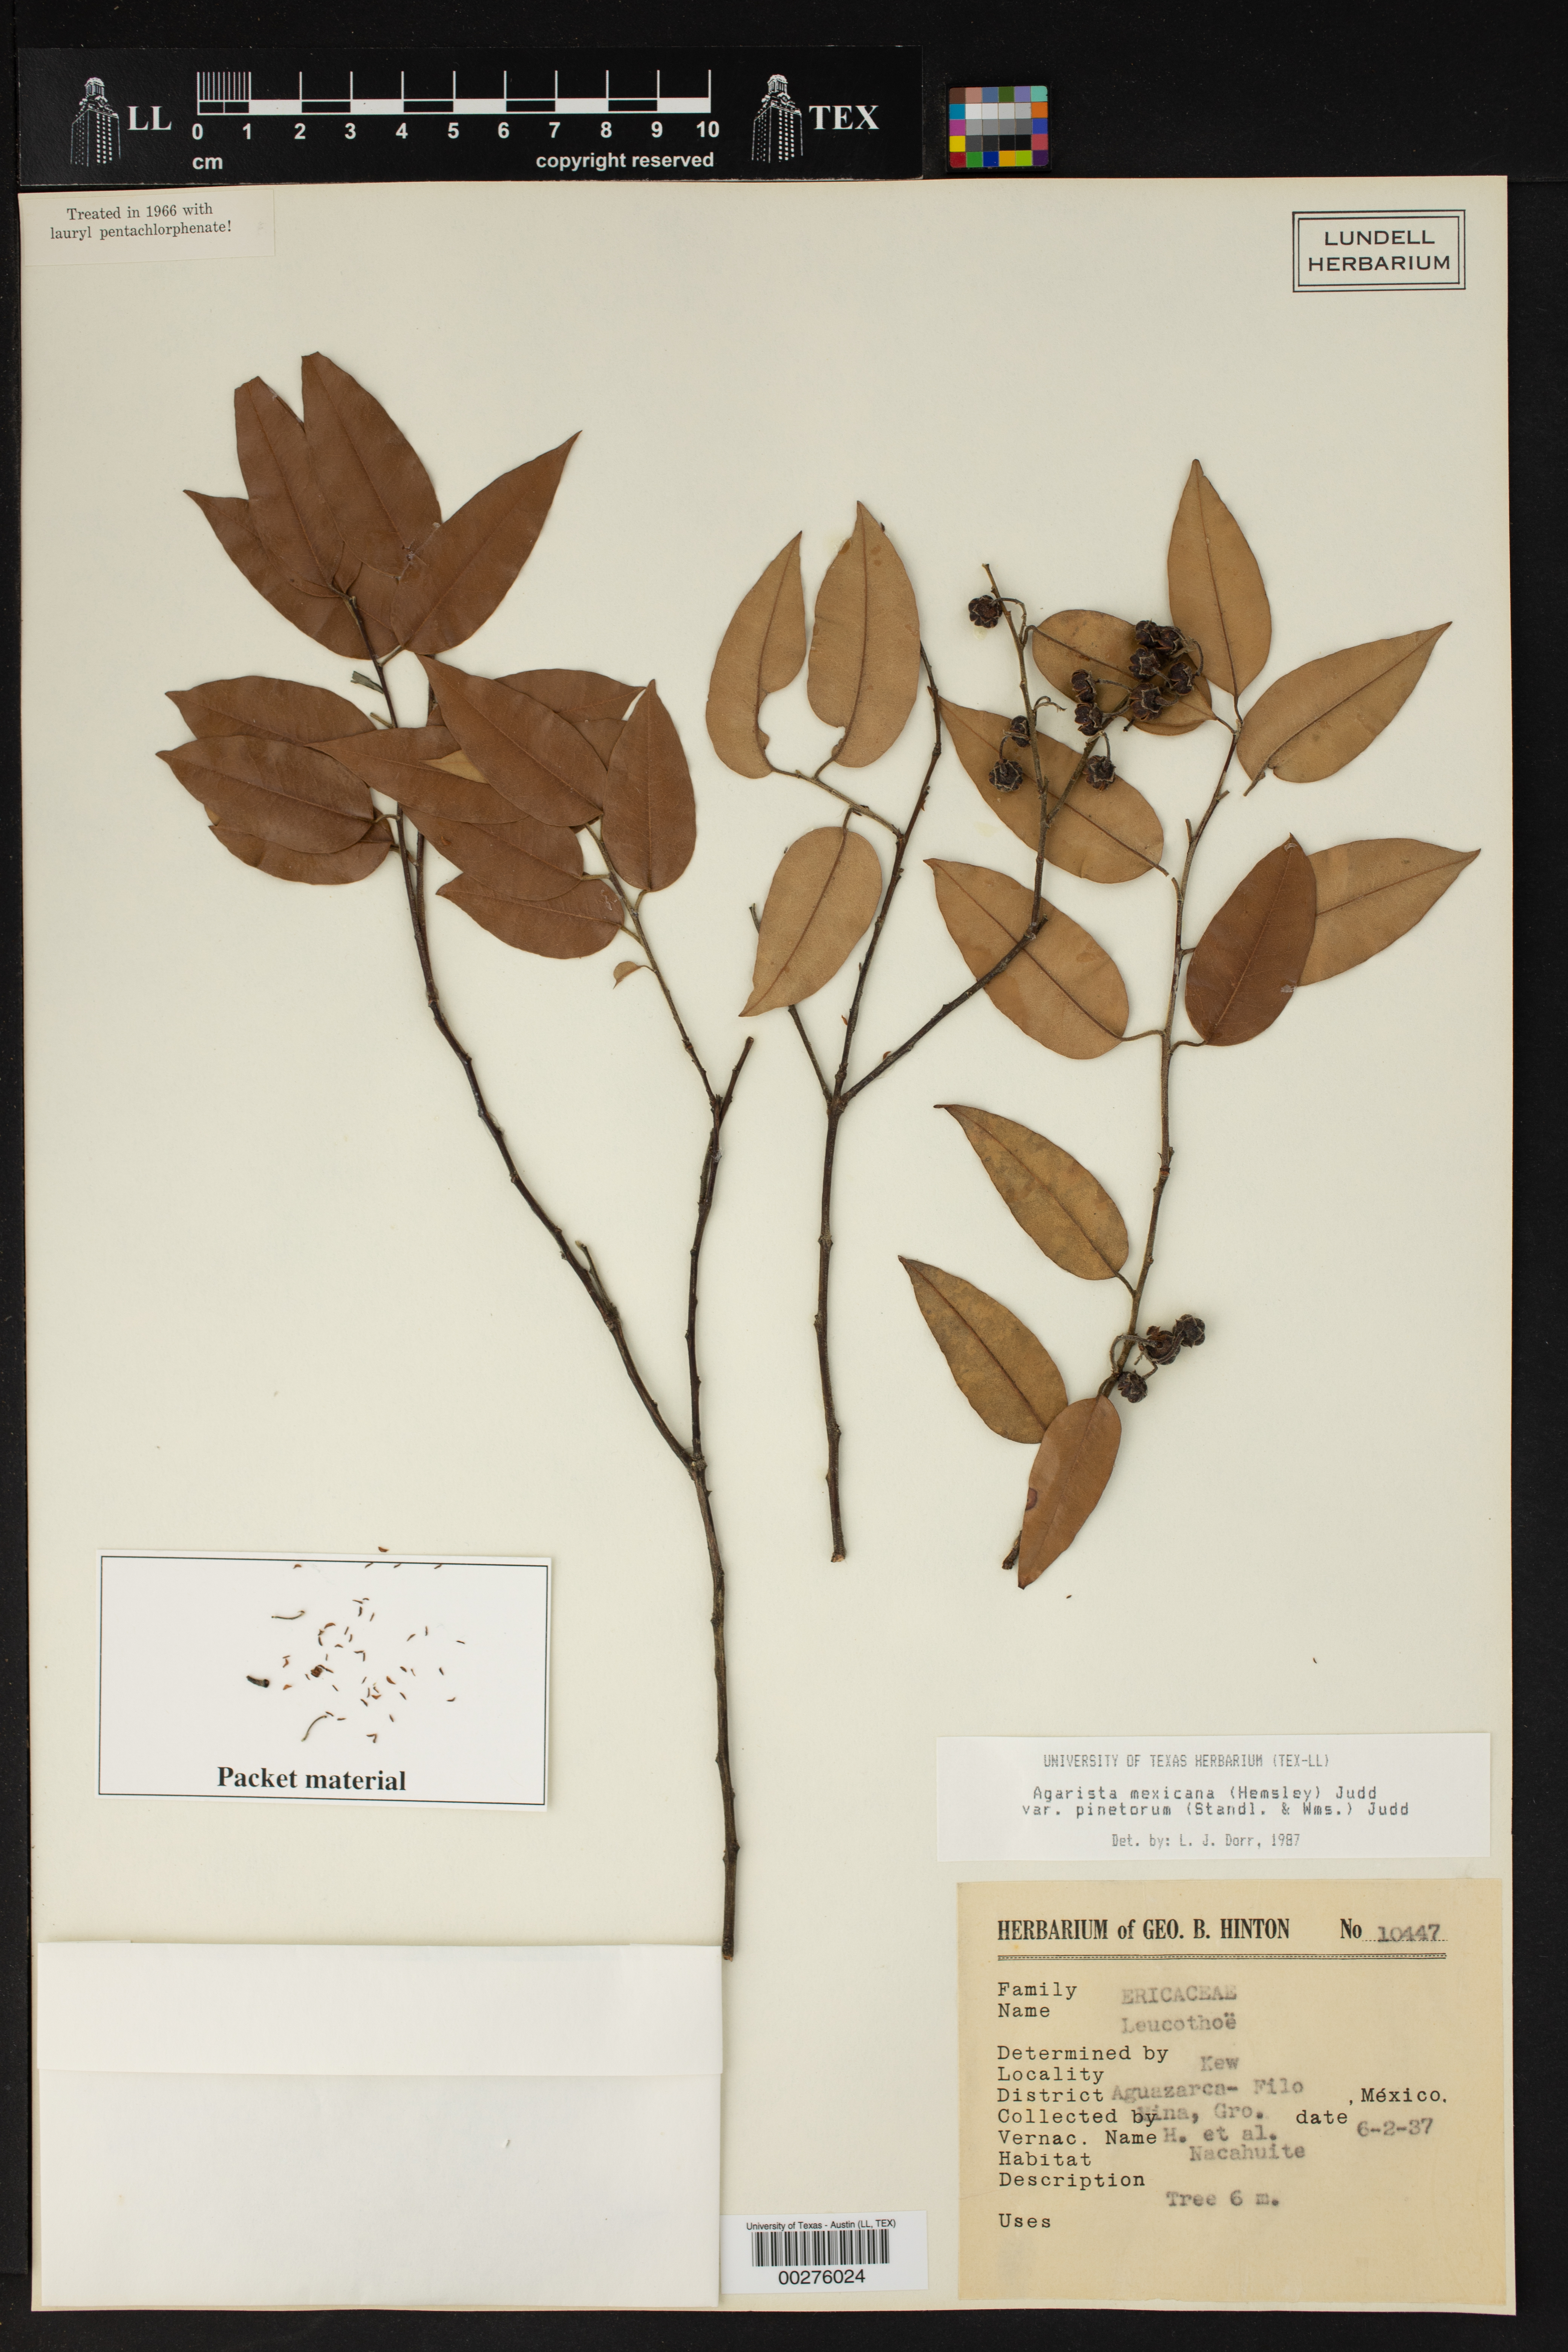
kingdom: Plantae
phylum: Tracheophyta
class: Magnoliopsida
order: Ericales
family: Ericaceae
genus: Agarista
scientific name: Agarista mexicana
